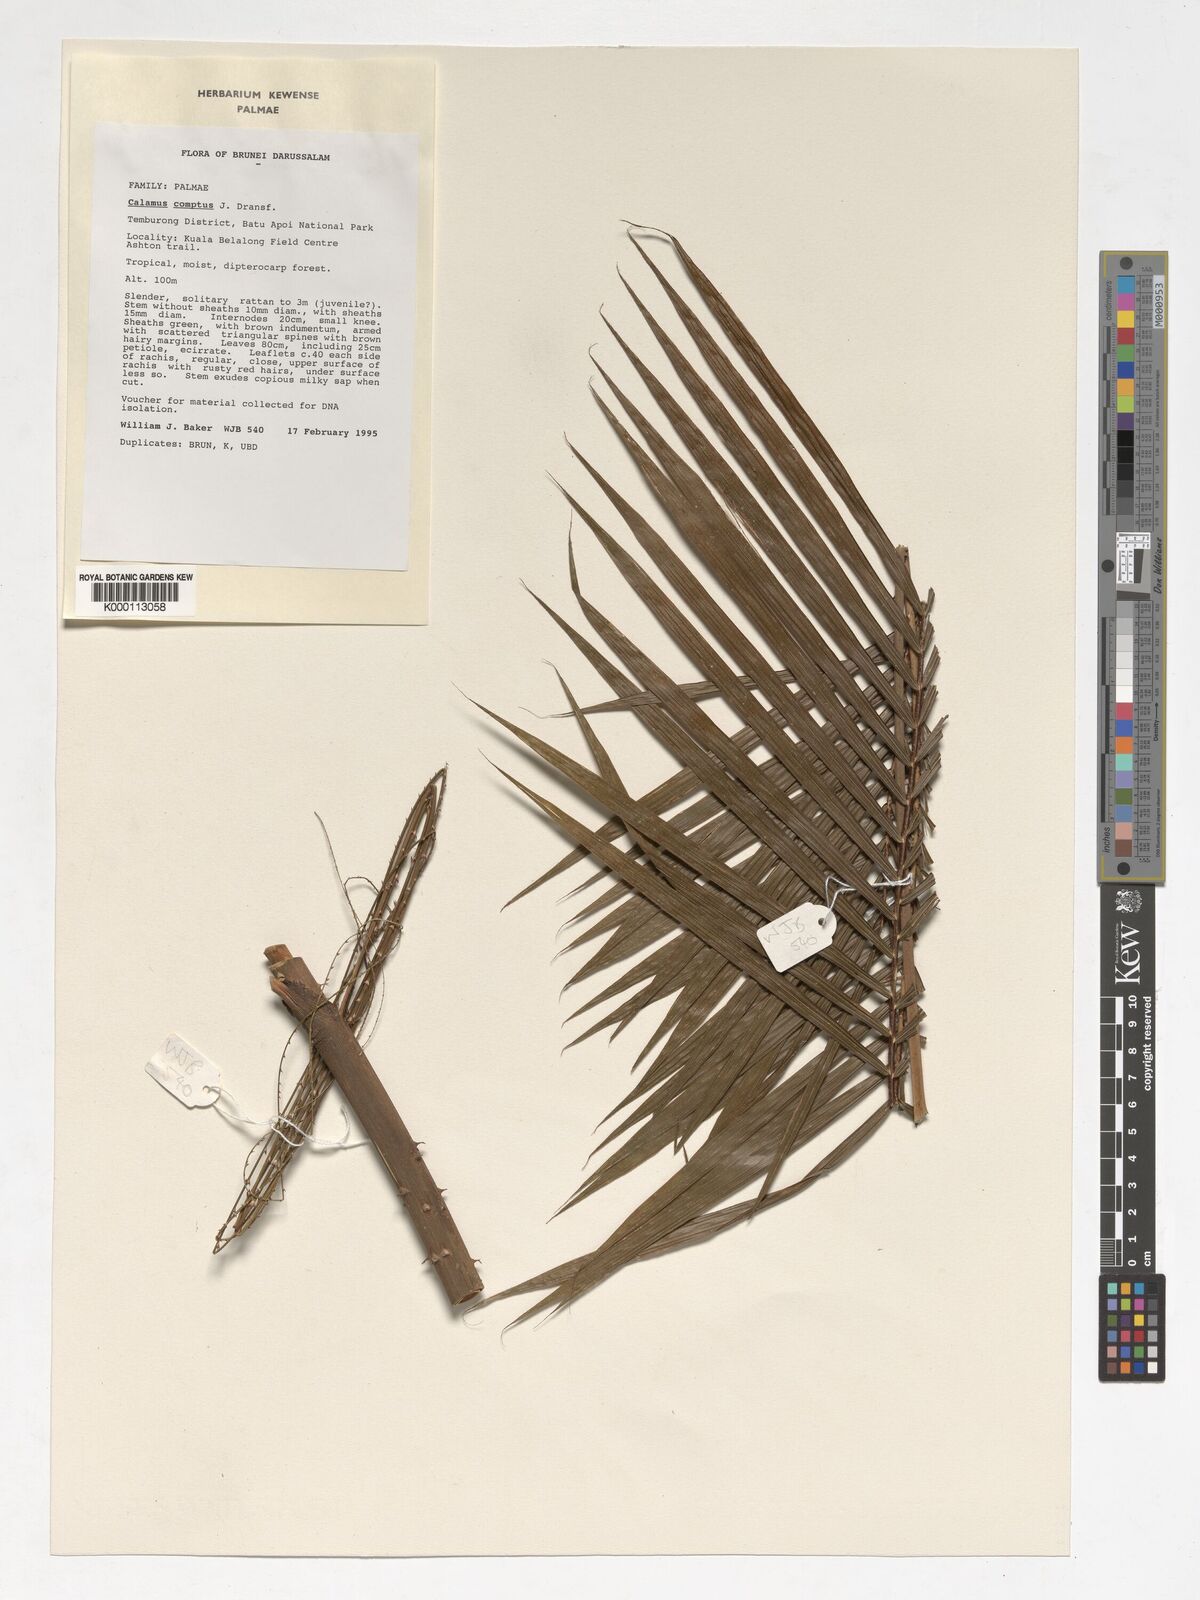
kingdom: Plantae
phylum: Tracheophyta
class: Liliopsida
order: Arecales
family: Arecaceae
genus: Calamus
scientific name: Calamus comptus
